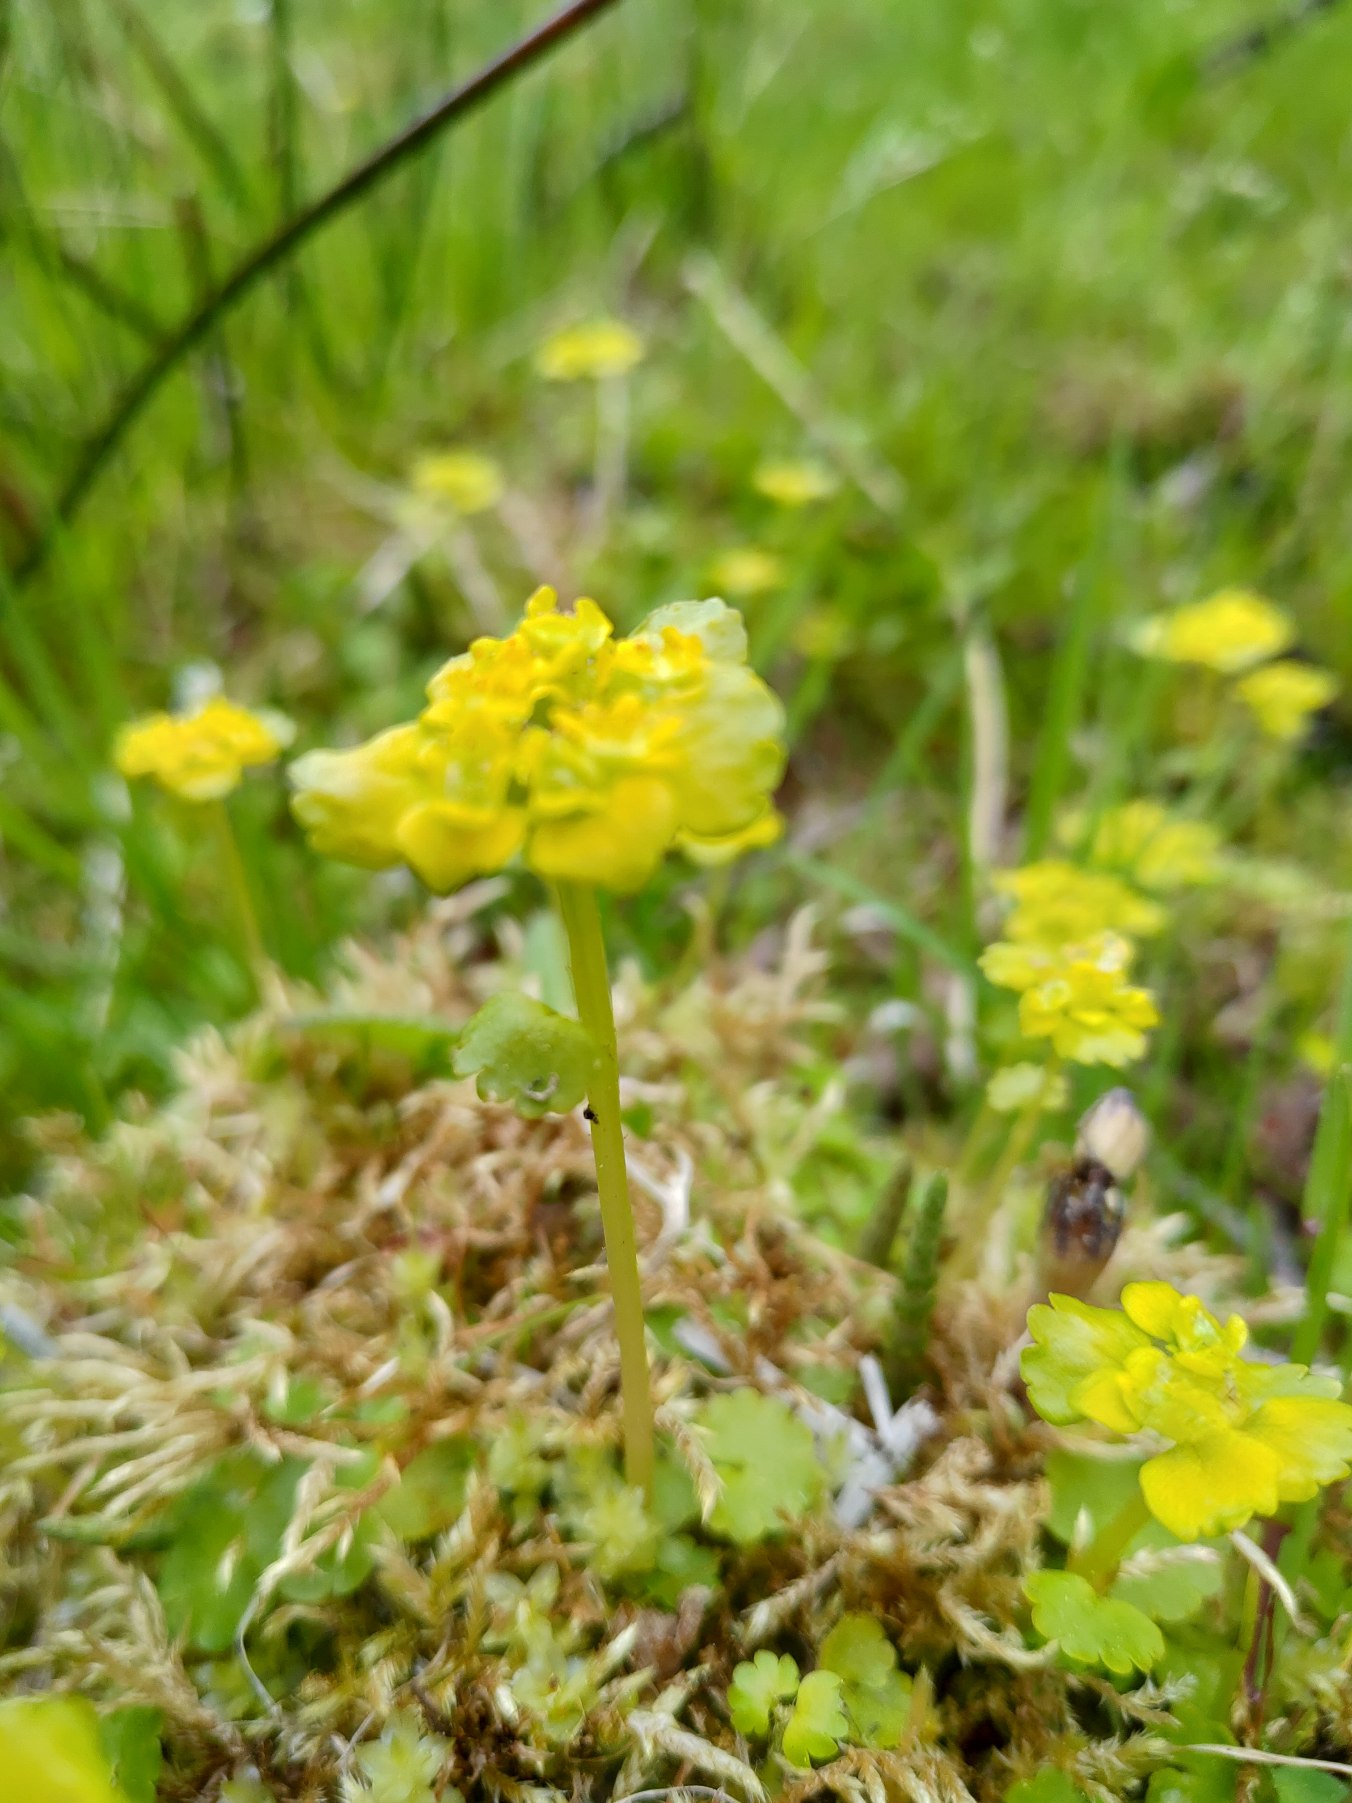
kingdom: Plantae
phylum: Tracheophyta
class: Magnoliopsida
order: Saxifragales
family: Saxifragaceae
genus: Chrysosplenium
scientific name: Chrysosplenium alternifolium
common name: Almindelig milturt
